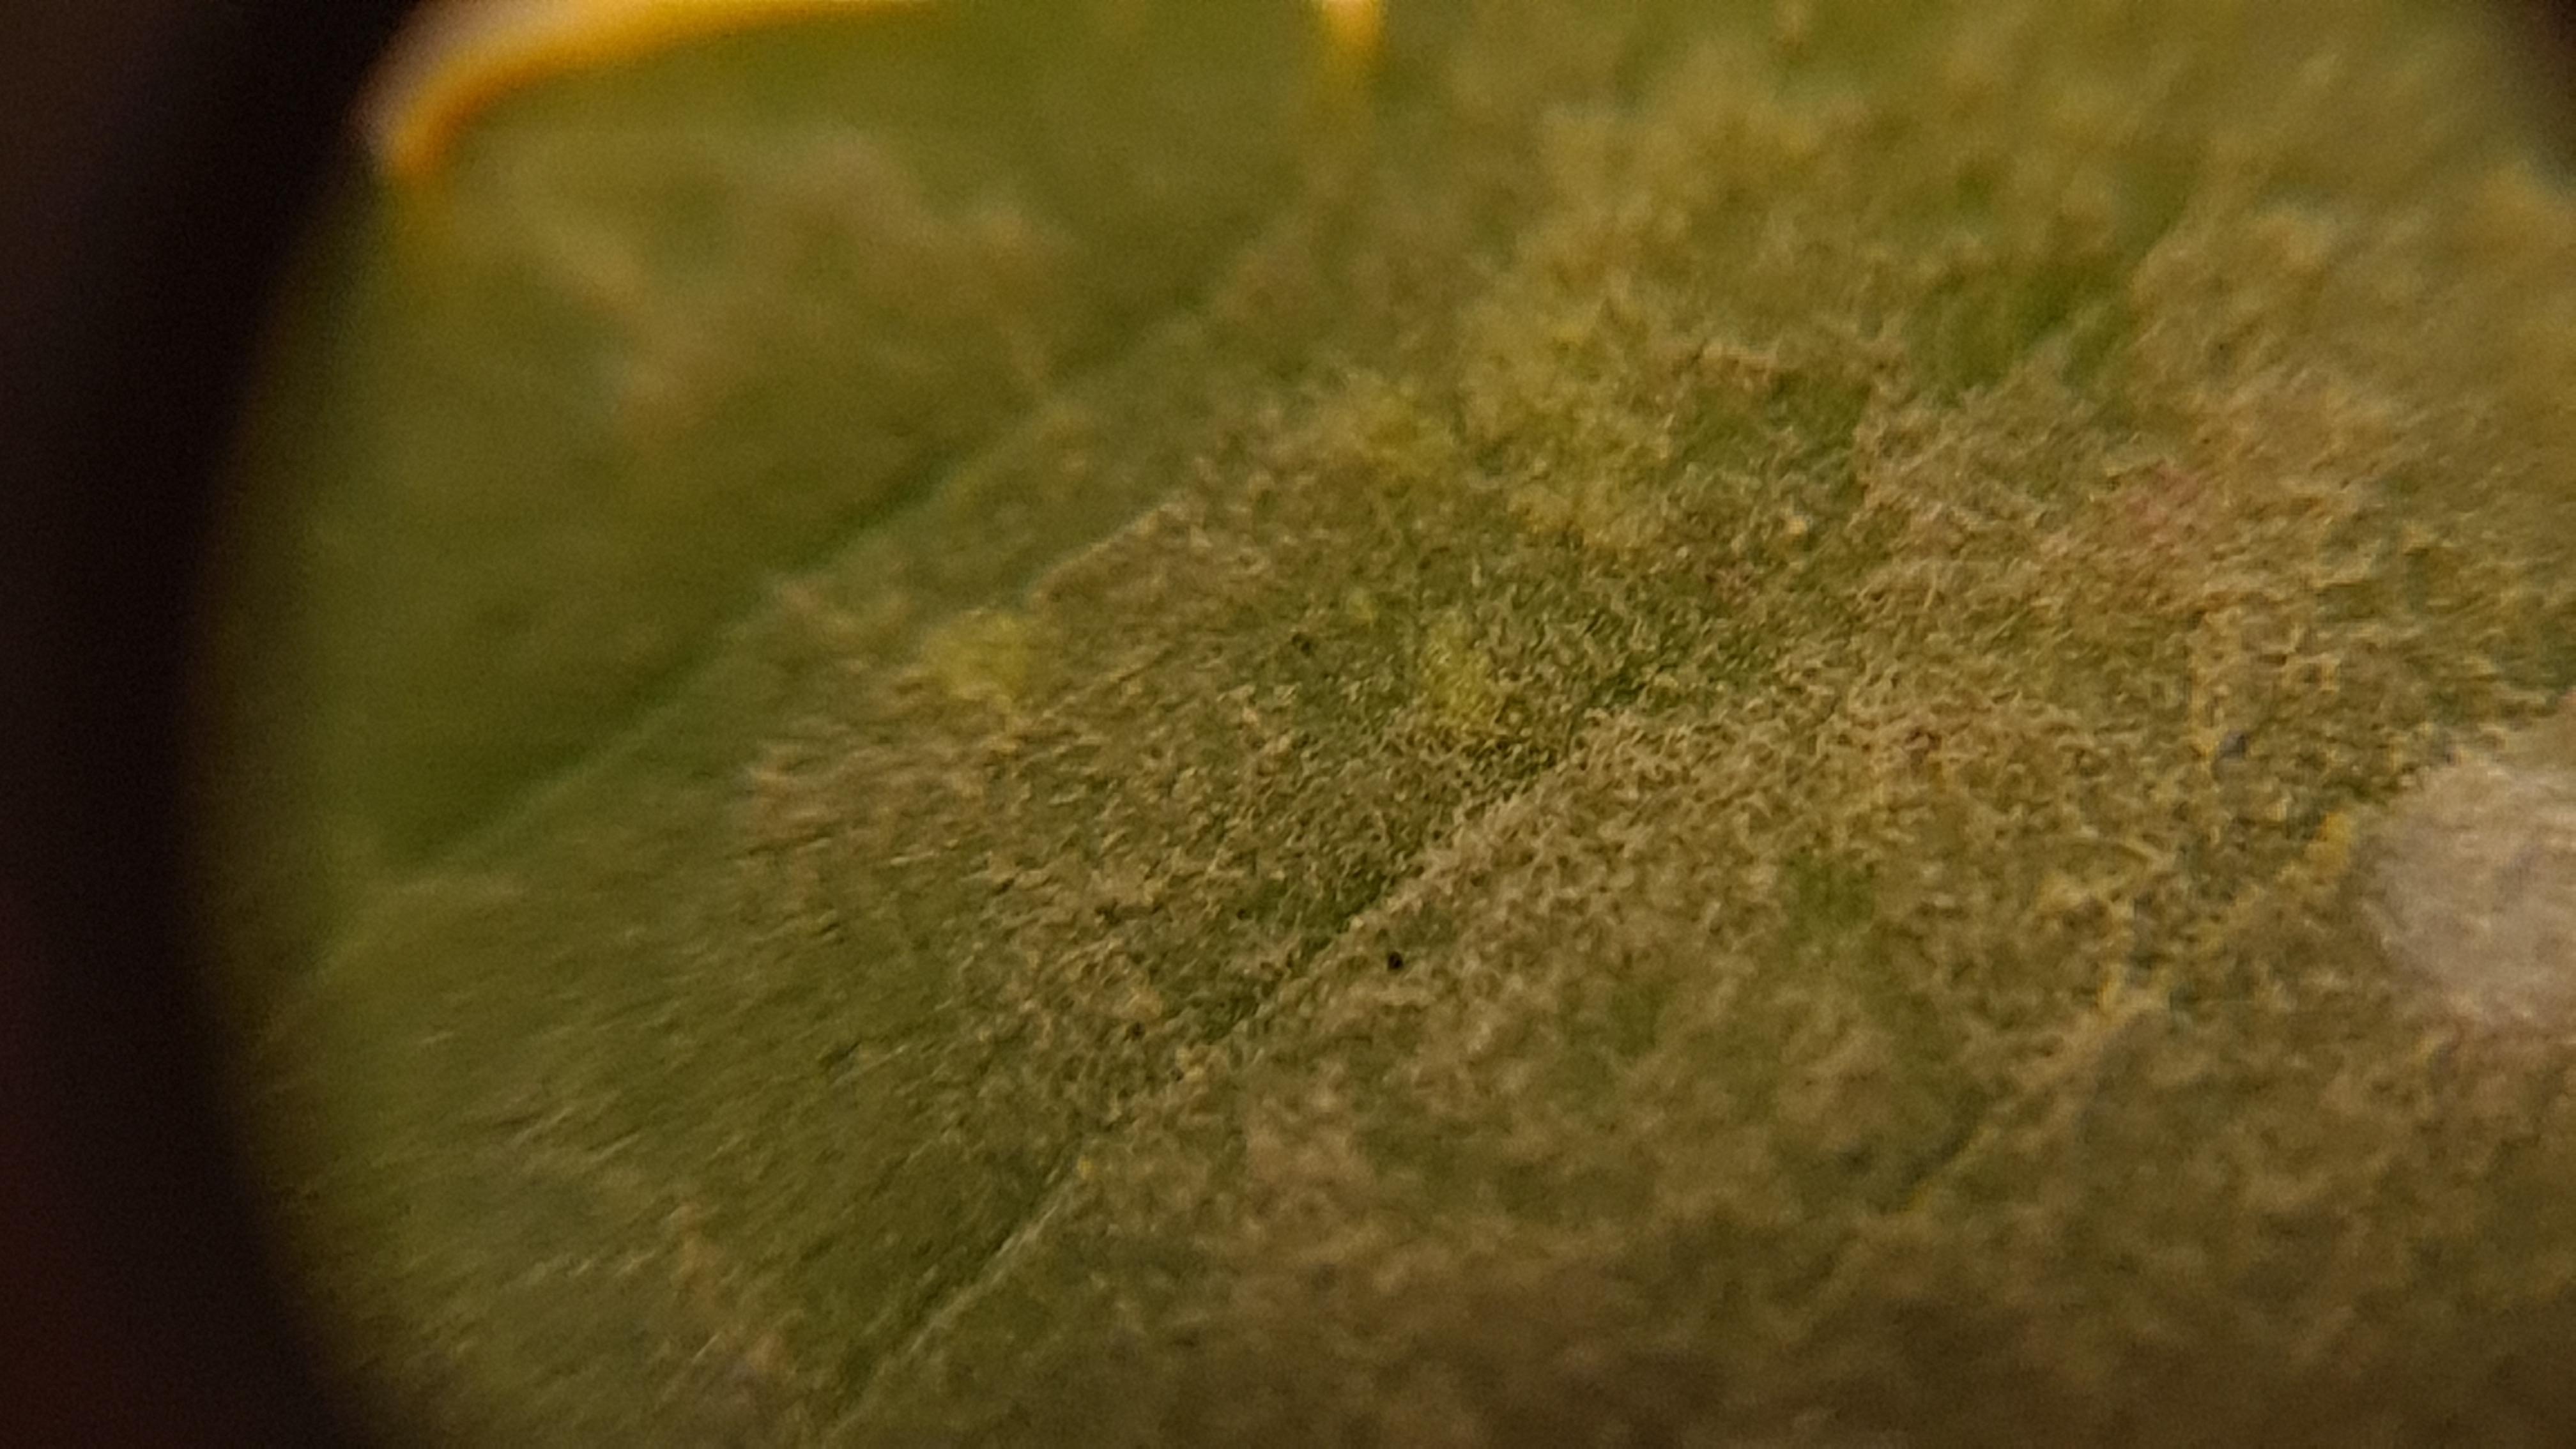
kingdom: Fungi
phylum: Ascomycota
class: Leotiomycetes
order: Helotiales
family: Erysiphaceae
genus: Neoerysiphe
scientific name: Neoerysiphe galeopsidis
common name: Mint mildew
